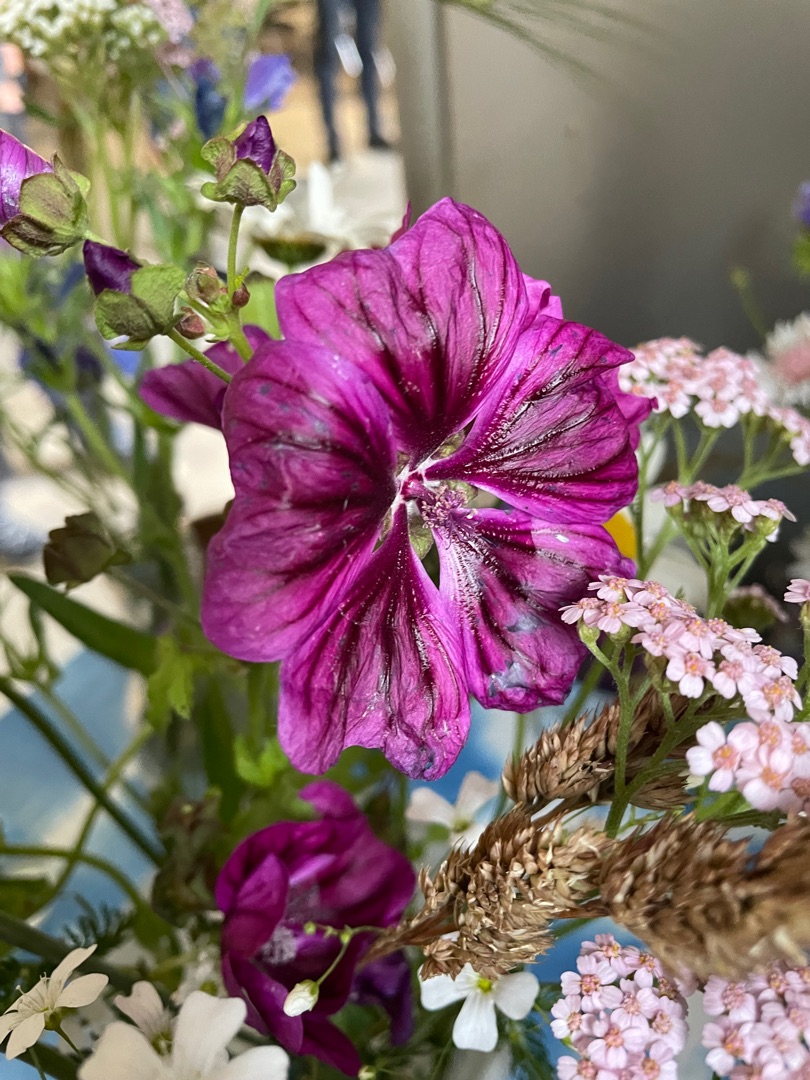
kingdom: Plantae
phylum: Tracheophyta
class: Magnoliopsida
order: Malvales
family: Malvaceae
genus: Malva
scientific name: Malva sylvestris
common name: Stor katost
